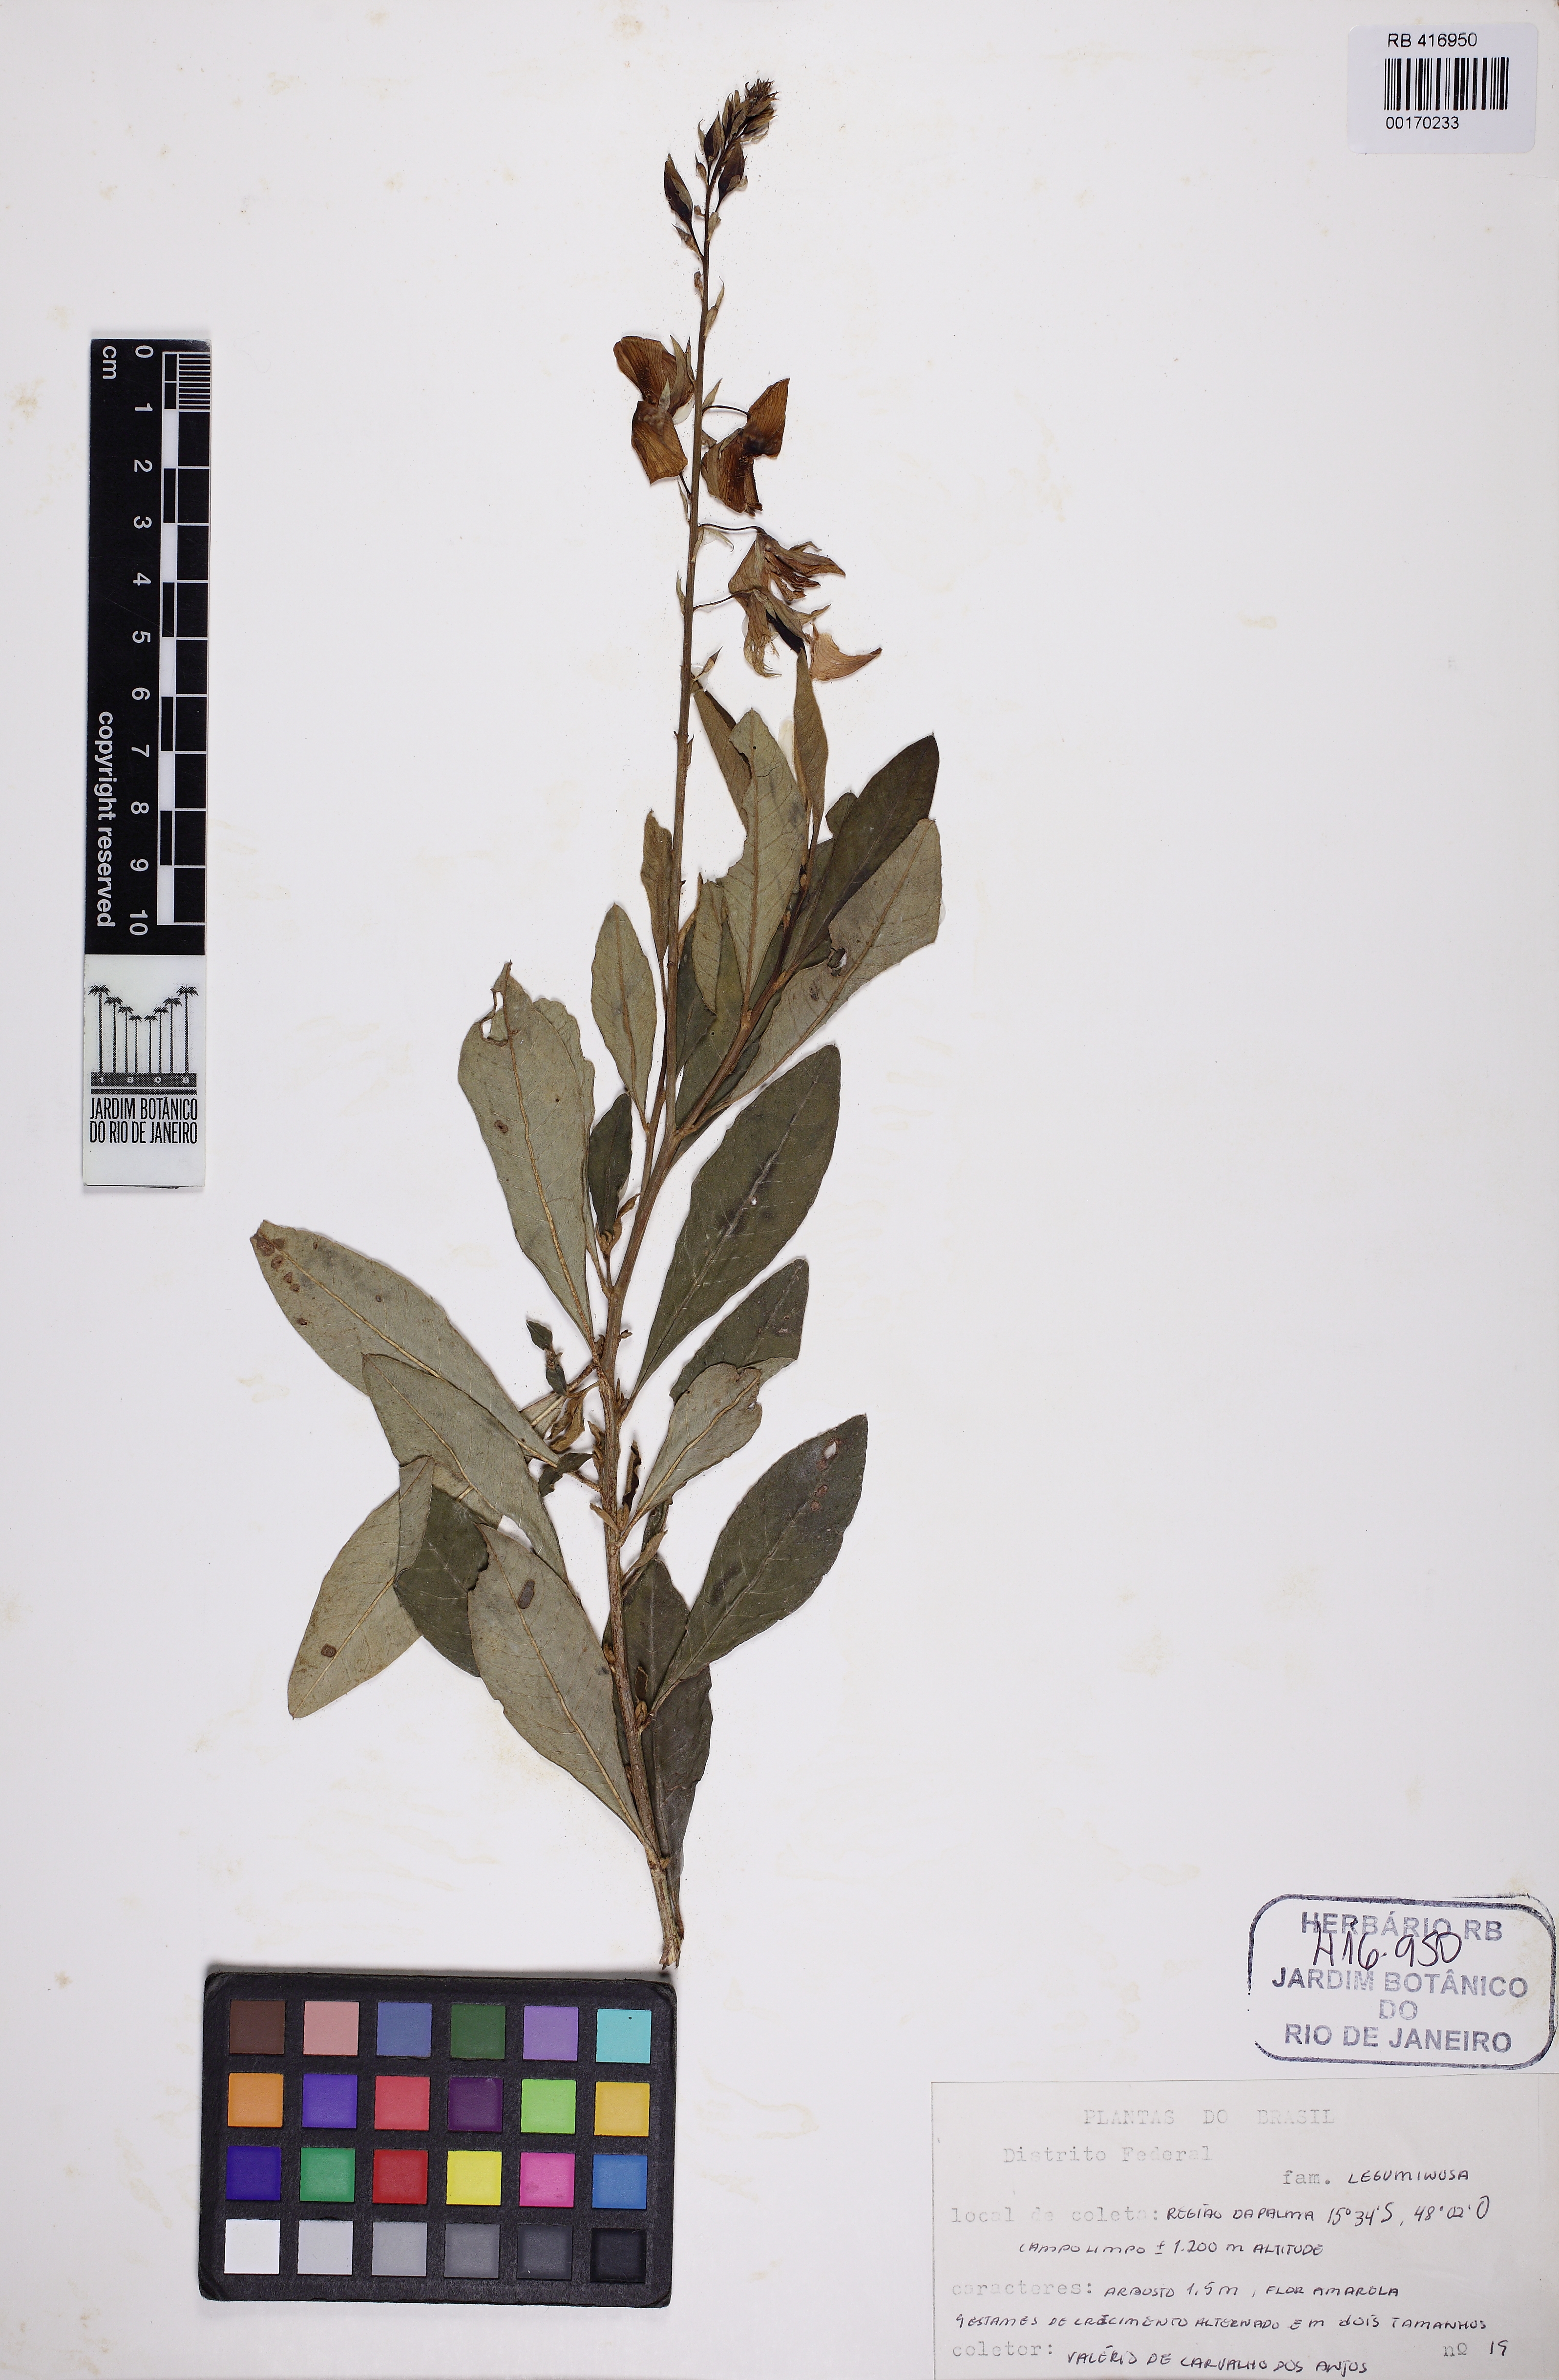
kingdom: Plantae
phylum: Tracheophyta
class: Magnoliopsida
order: Fabales
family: Fabaceae
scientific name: Fabaceae
